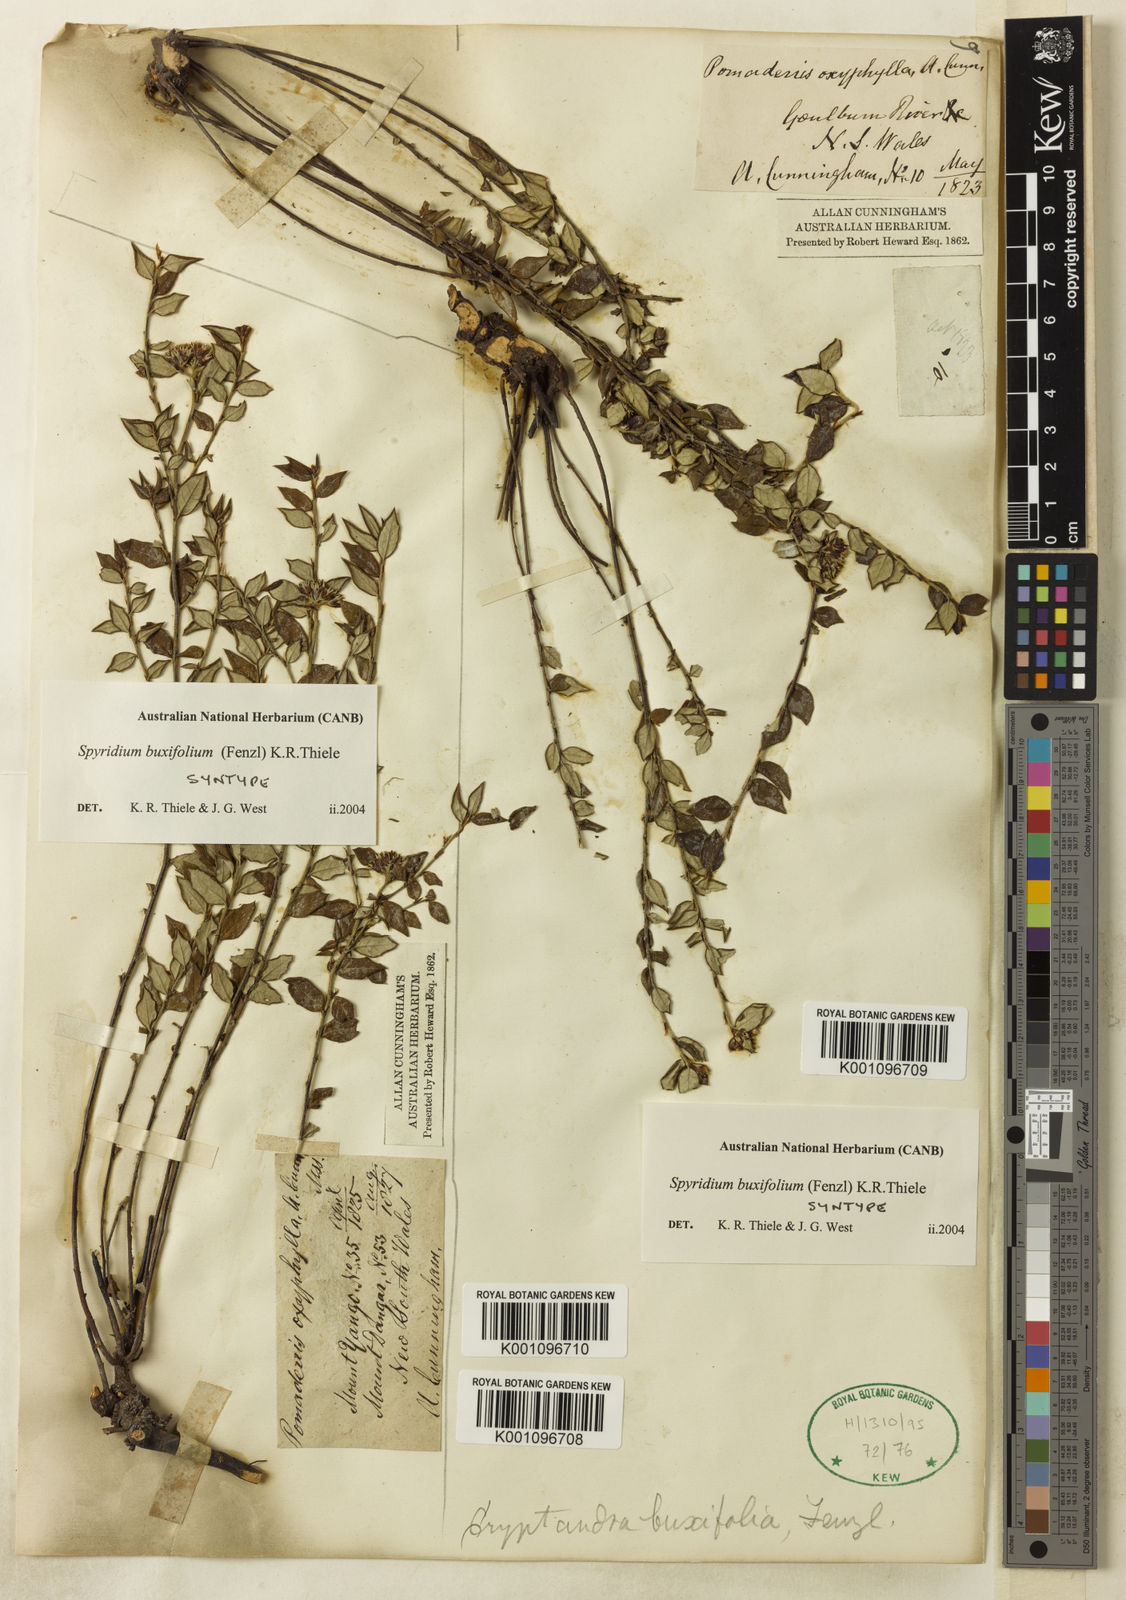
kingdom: Plantae
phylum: Tracheophyta
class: Magnoliopsida
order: Rosales
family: Rhamnaceae
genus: Spyridium
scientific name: Spyridium buxifolium
